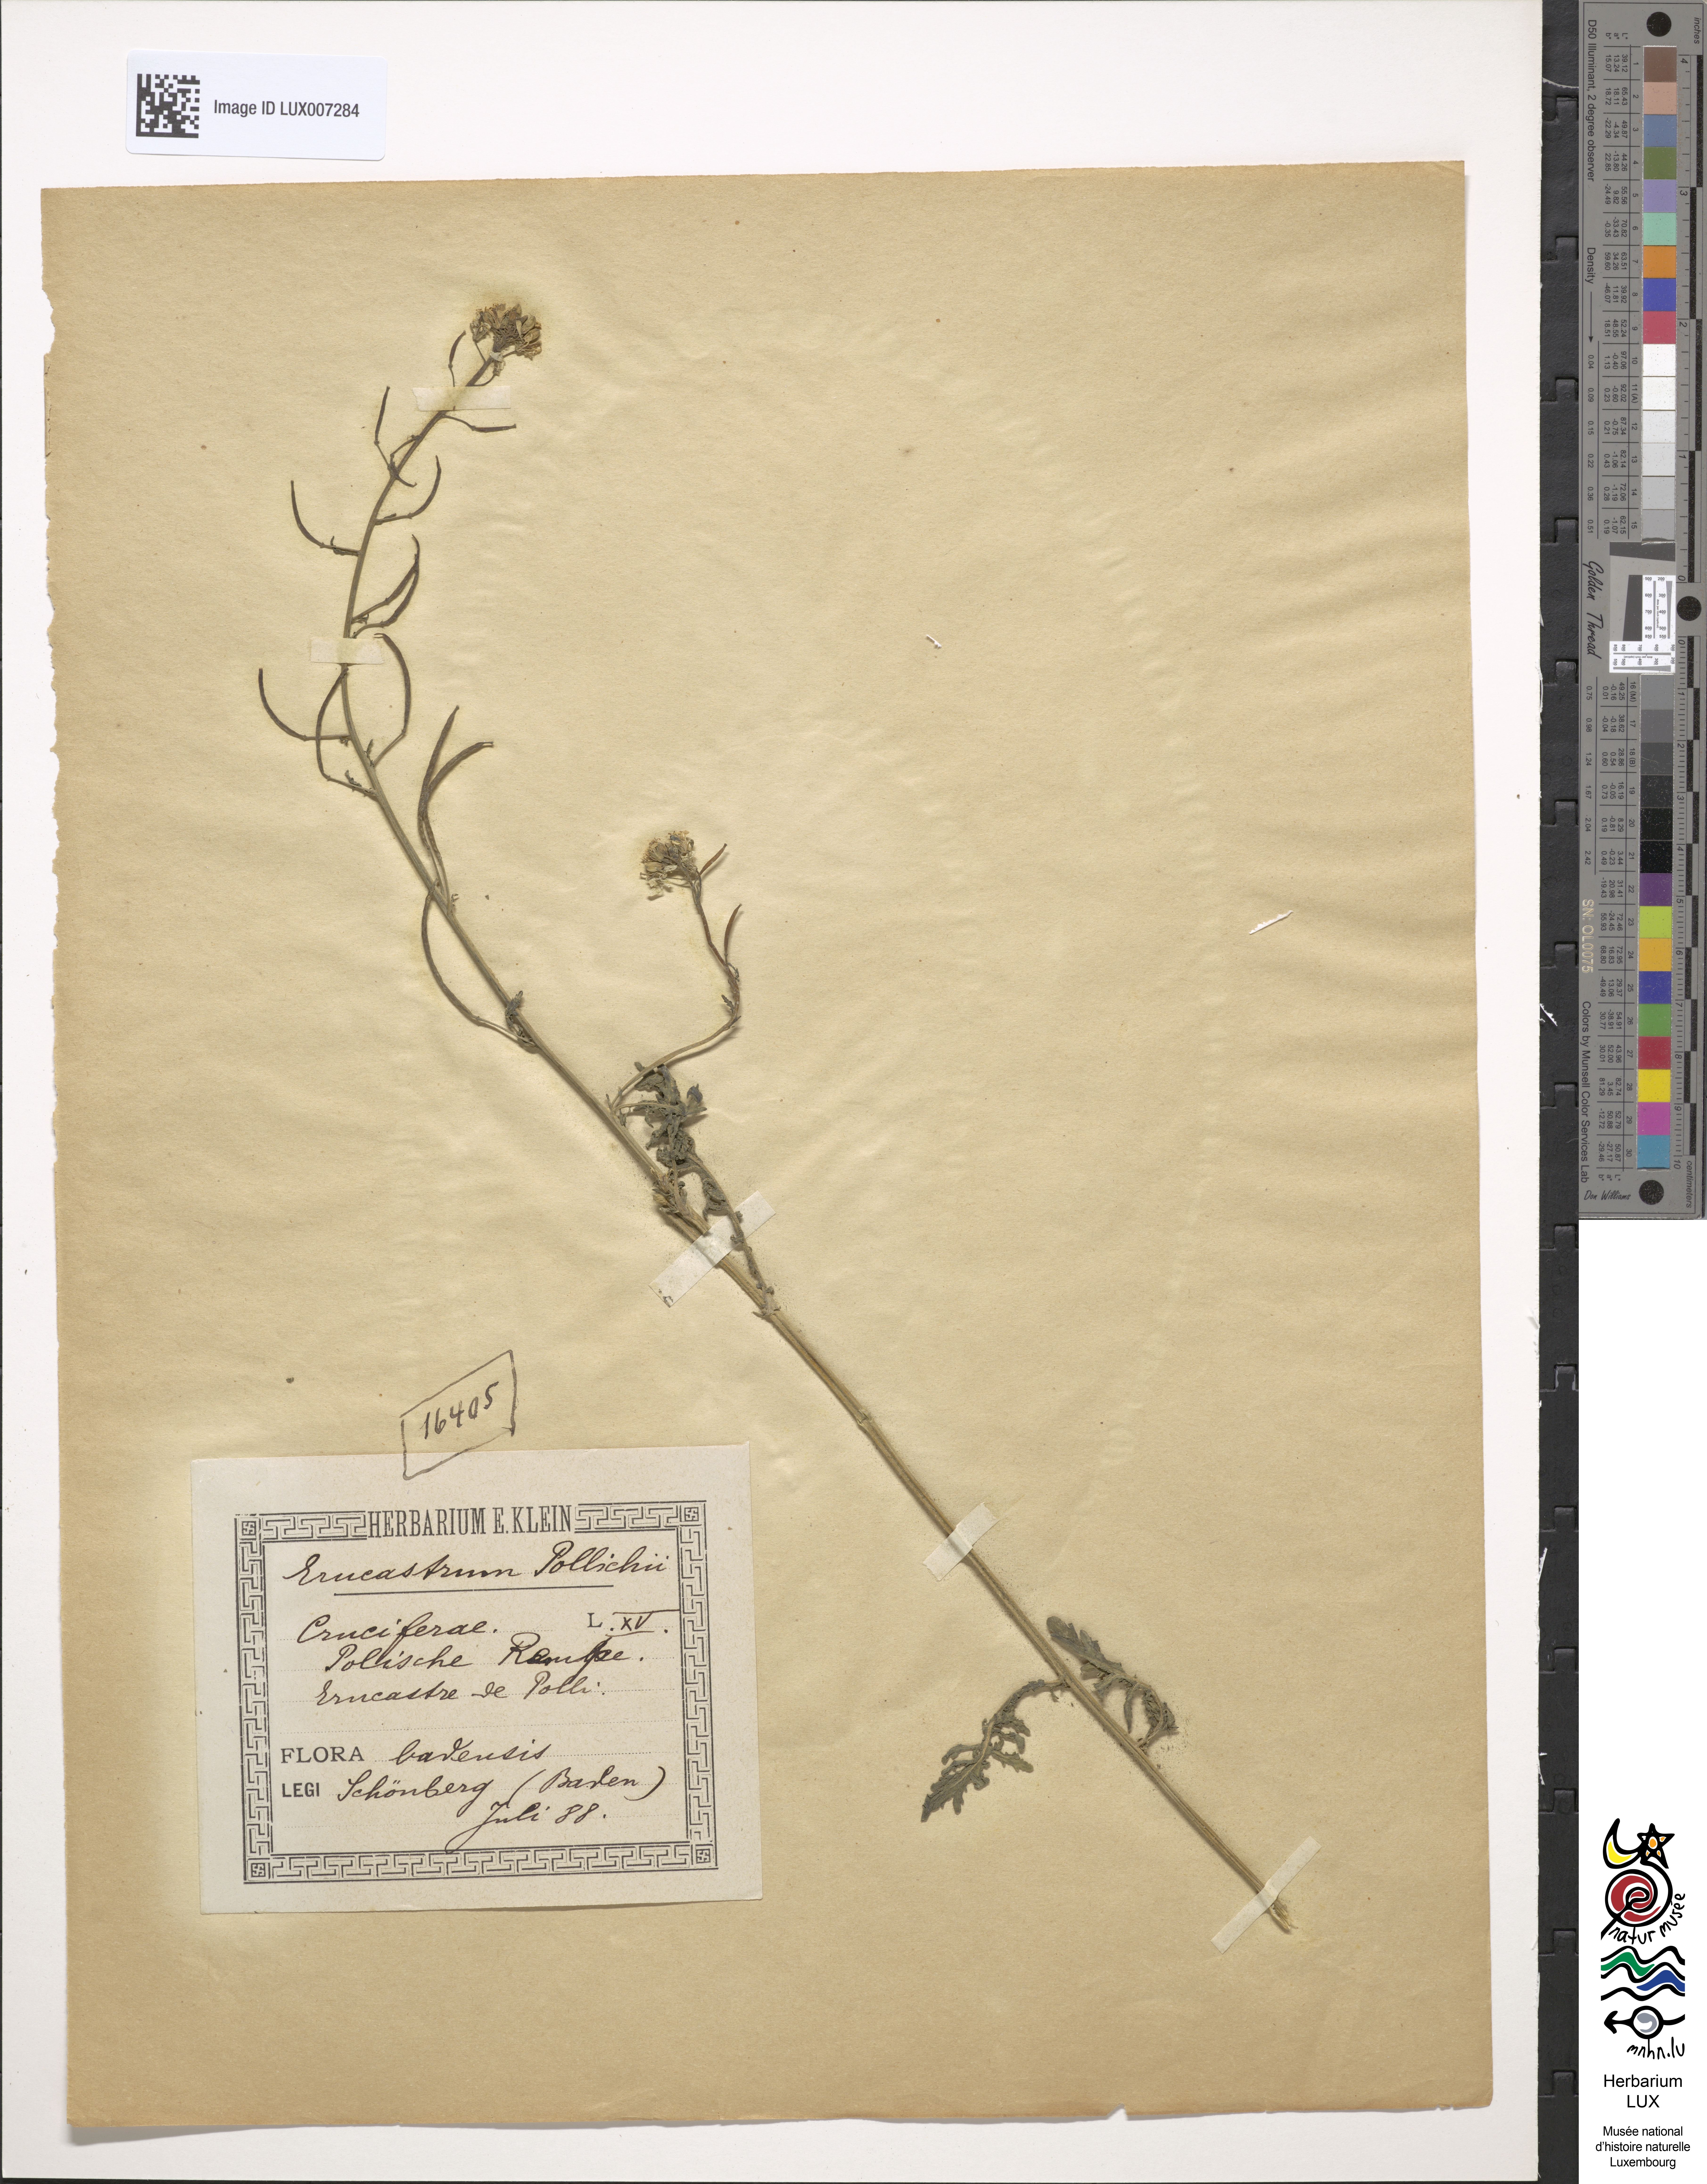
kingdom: Plantae
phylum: Tracheophyta
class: Magnoliopsida
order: Brassicales
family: Brassicaceae
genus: Erucastrum
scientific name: Erucastrum gallicum
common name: Hairy rocket
